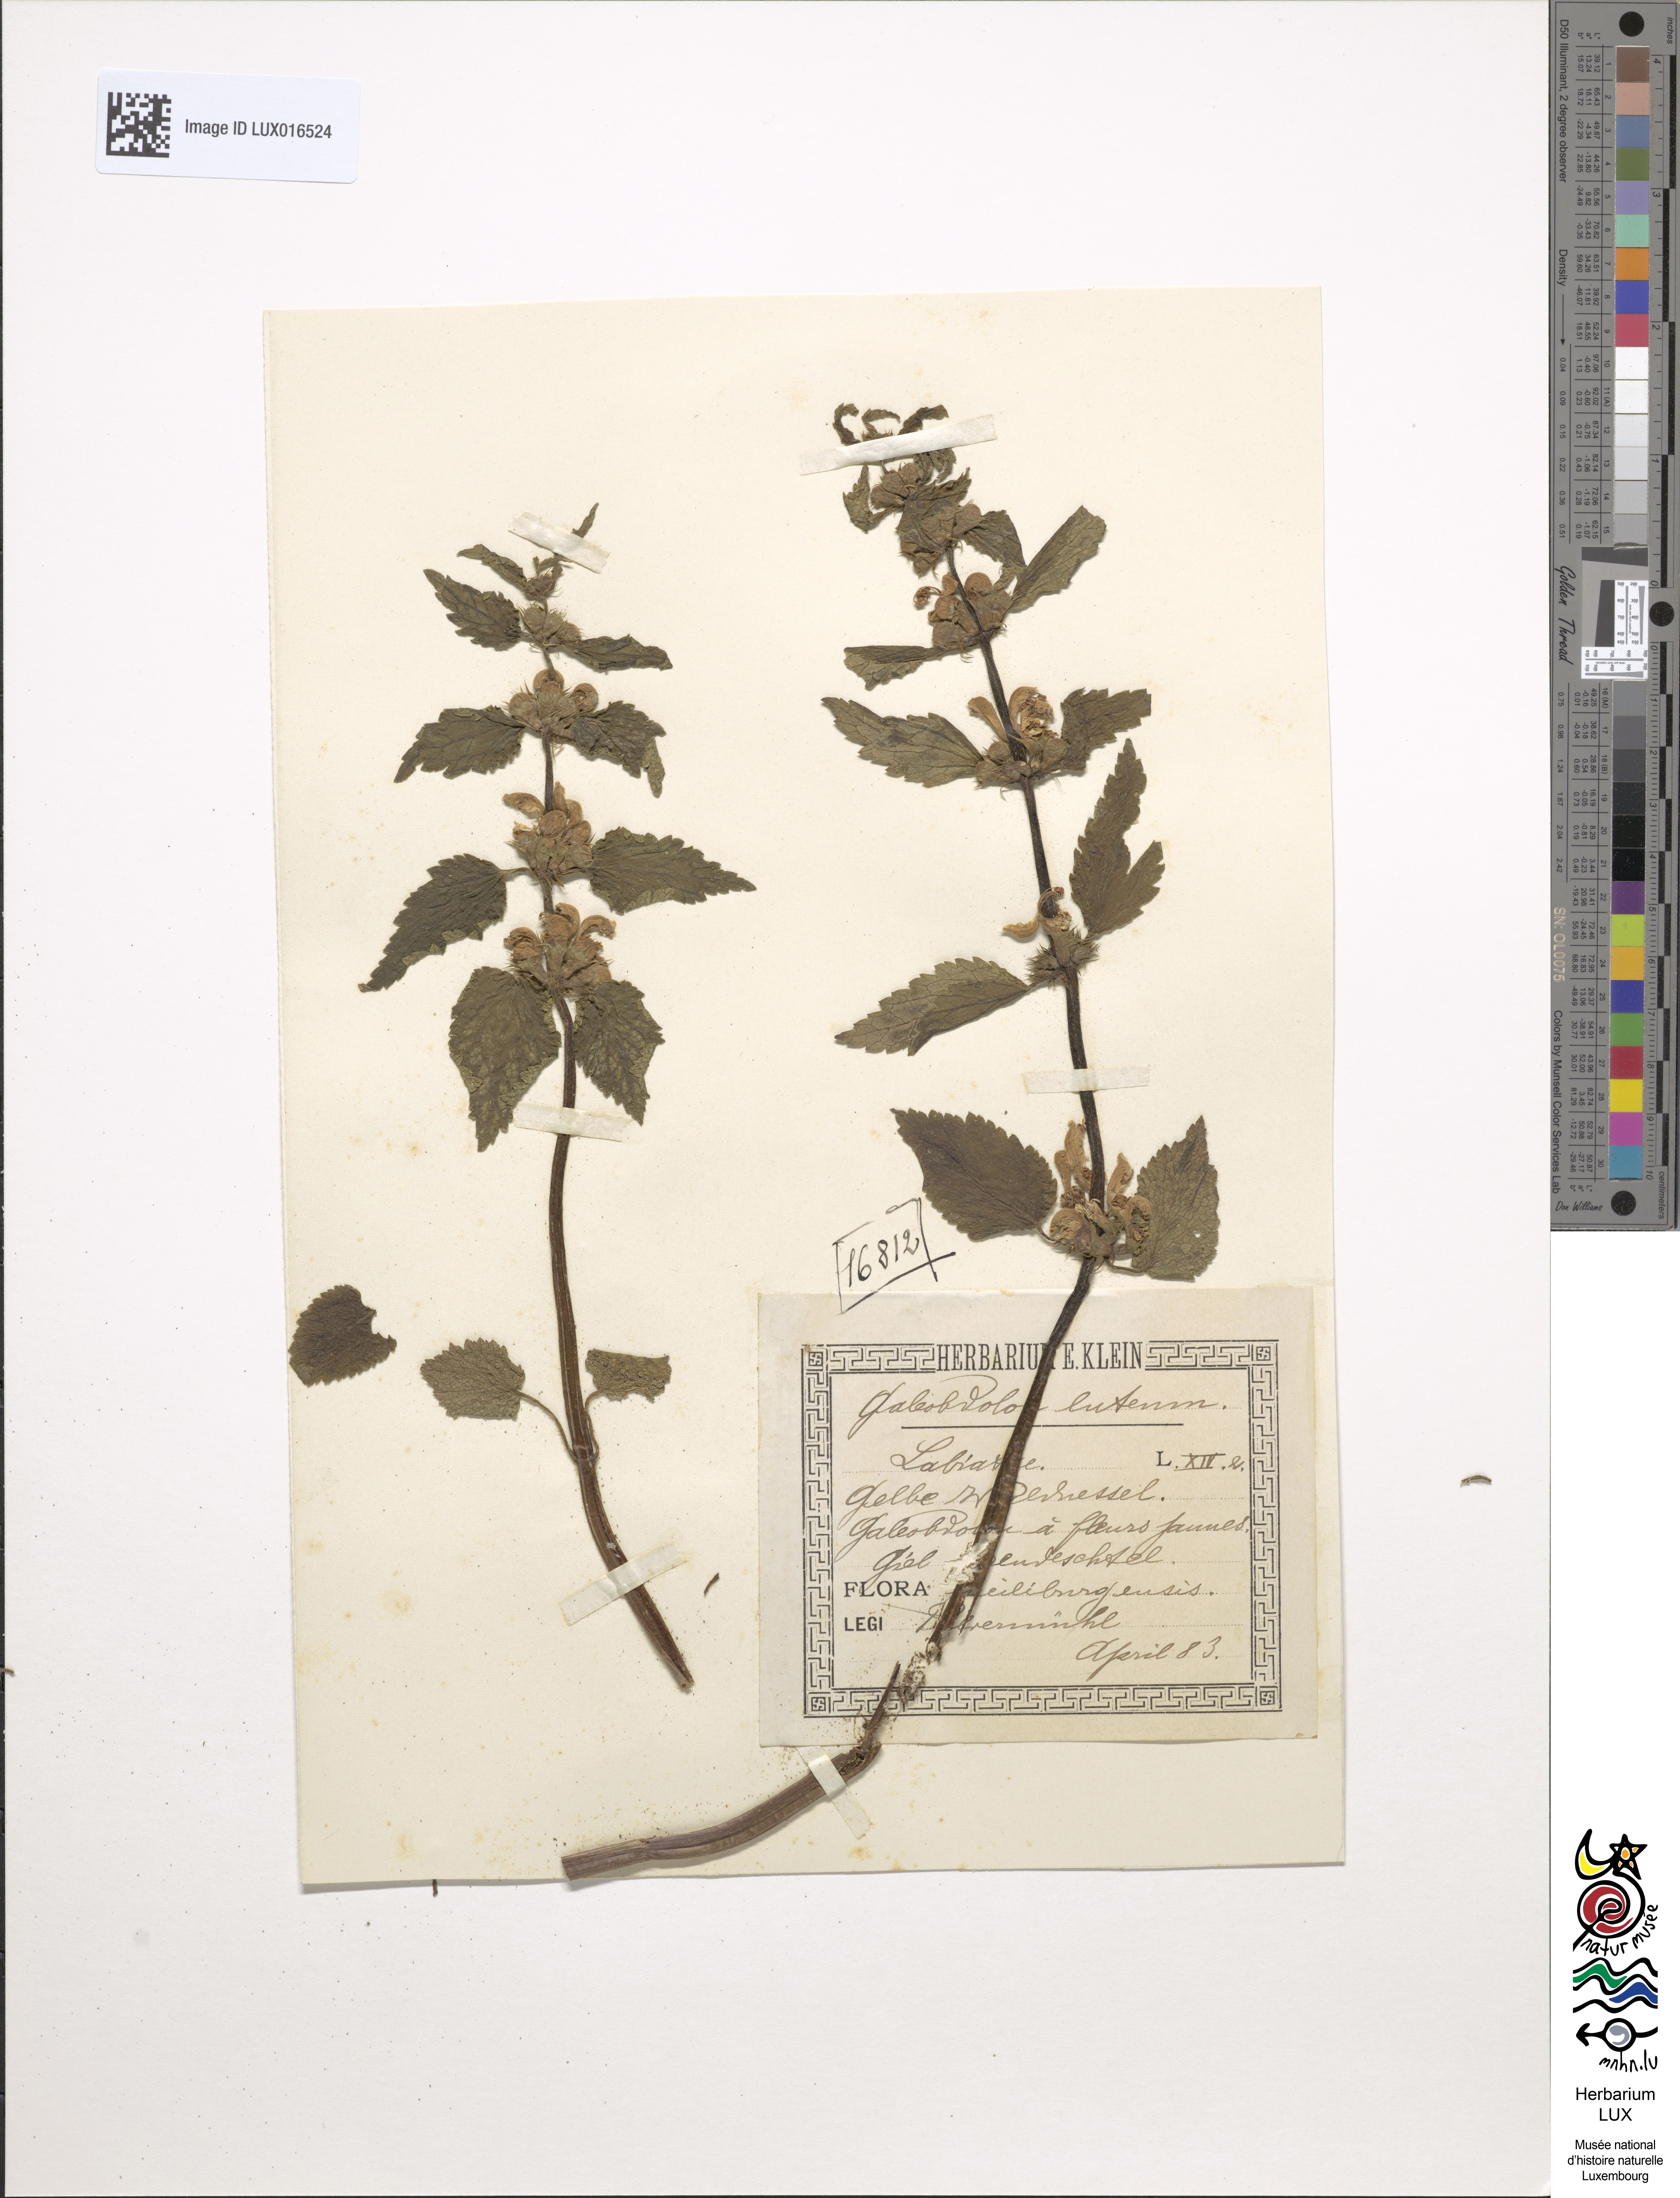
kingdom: Plantae
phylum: Tracheophyta
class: Magnoliopsida
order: Lamiales
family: Lamiaceae
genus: Lamium
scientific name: Lamium galeobdolon
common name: Yellow archangel
